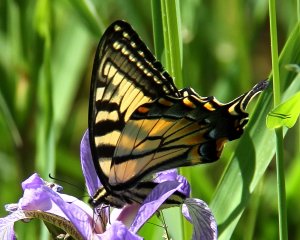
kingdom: Animalia
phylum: Arthropoda
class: Insecta
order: Lepidoptera
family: Papilionidae
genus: Pterourus
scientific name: Pterourus glaucus
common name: Eastern Tiger Swallowtail
